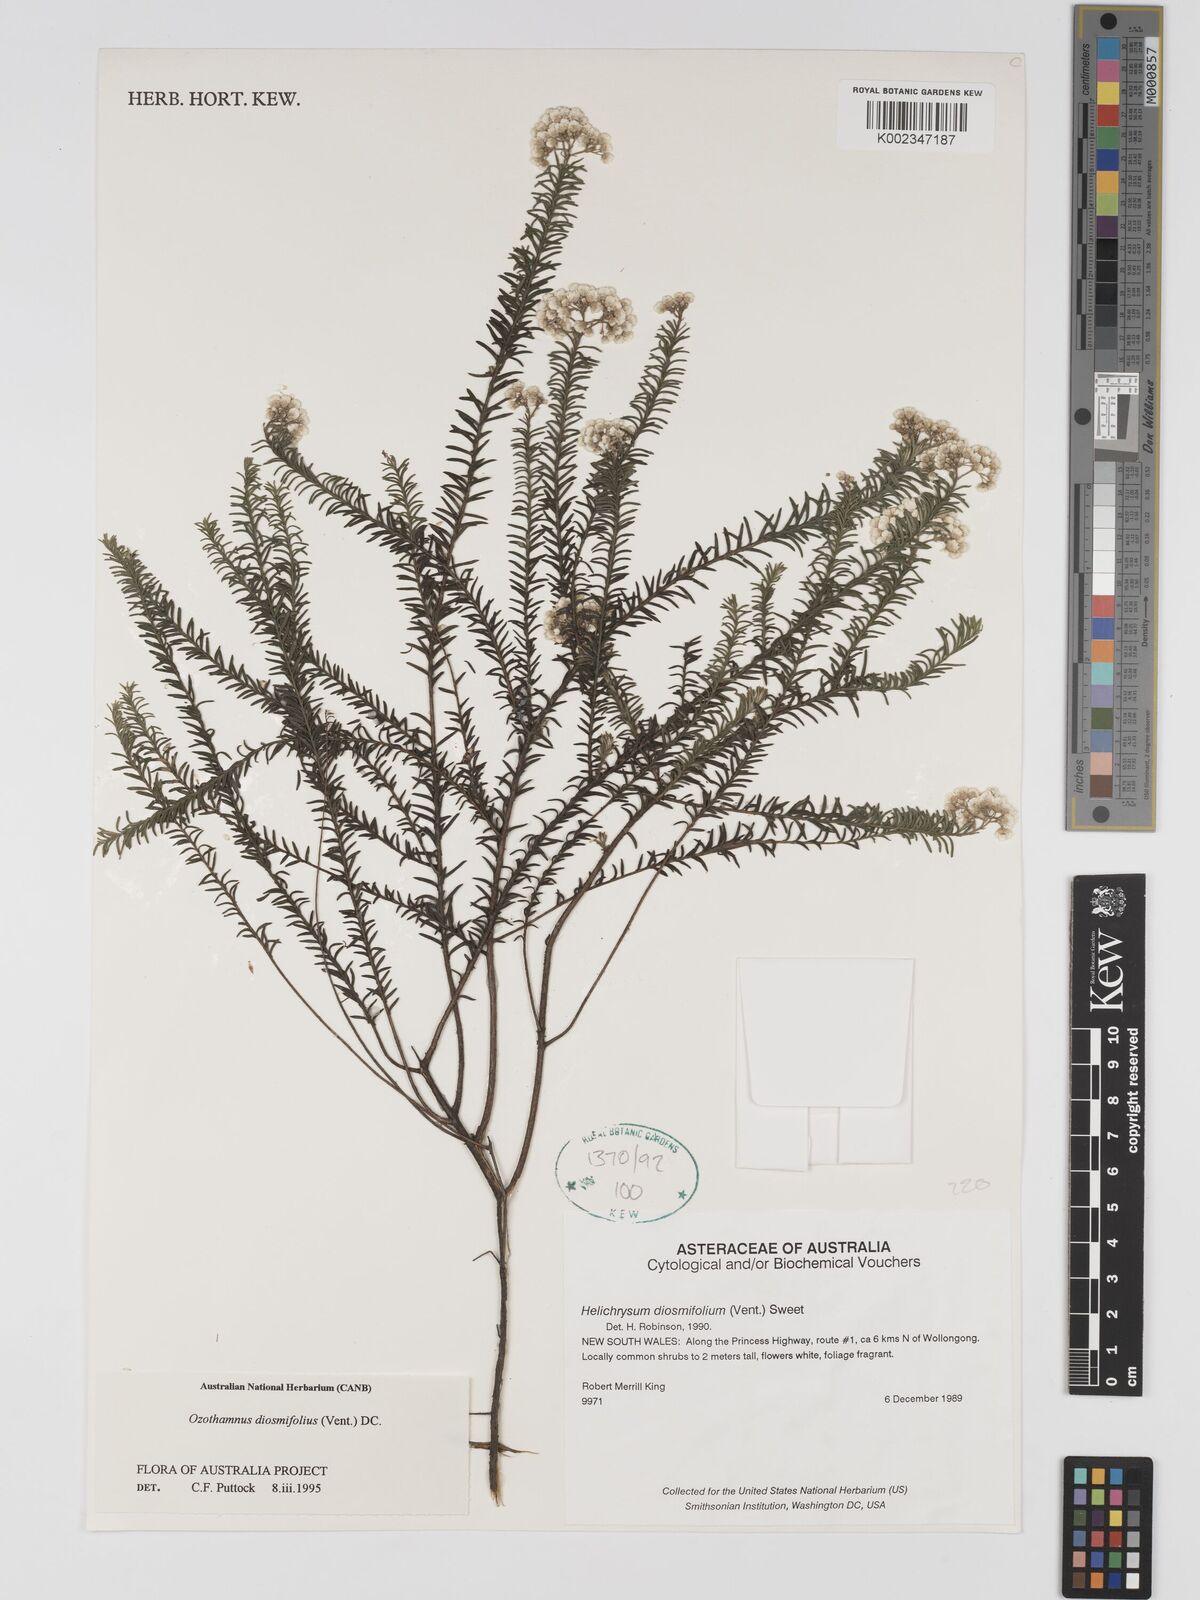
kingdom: Plantae
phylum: Tracheophyta
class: Magnoliopsida
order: Asterales
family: Asteraceae
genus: Ozothamnus
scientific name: Ozothamnus diosmifolius
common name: White-dogwood
